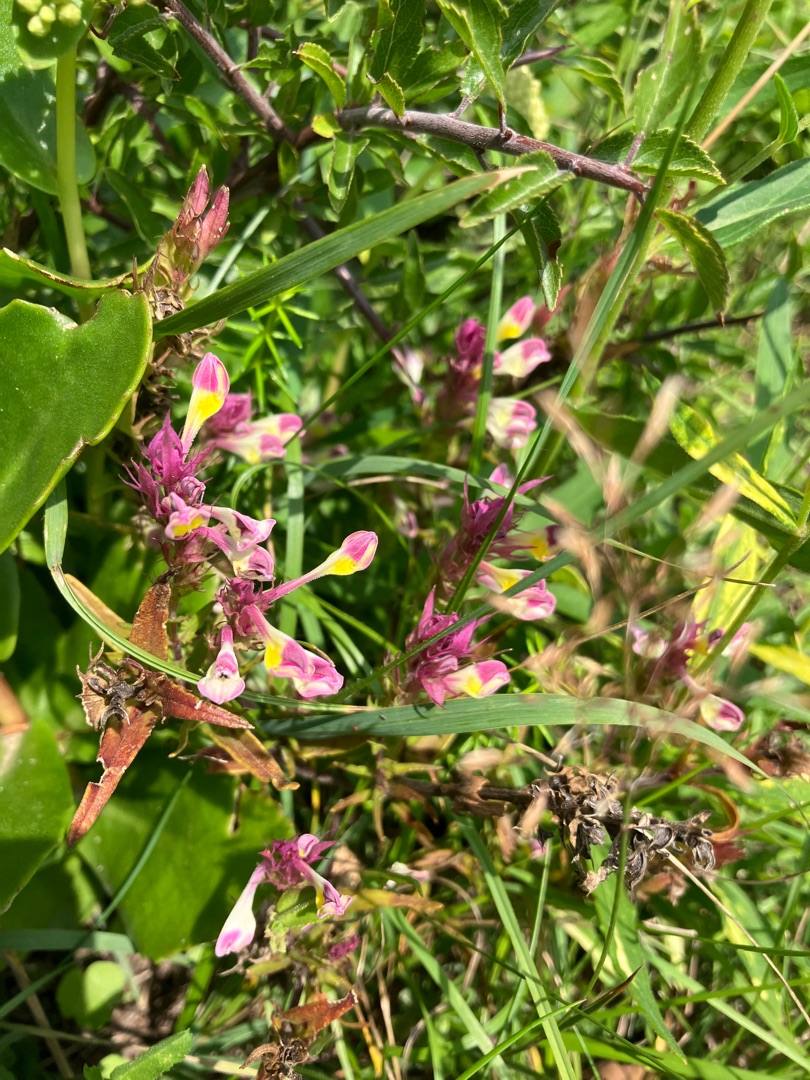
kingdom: Plantae
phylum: Tracheophyta
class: Magnoliopsida
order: Lamiales
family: Orobanchaceae
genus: Melampyrum
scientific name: Melampyrum arvense
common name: Ager-kohvede
